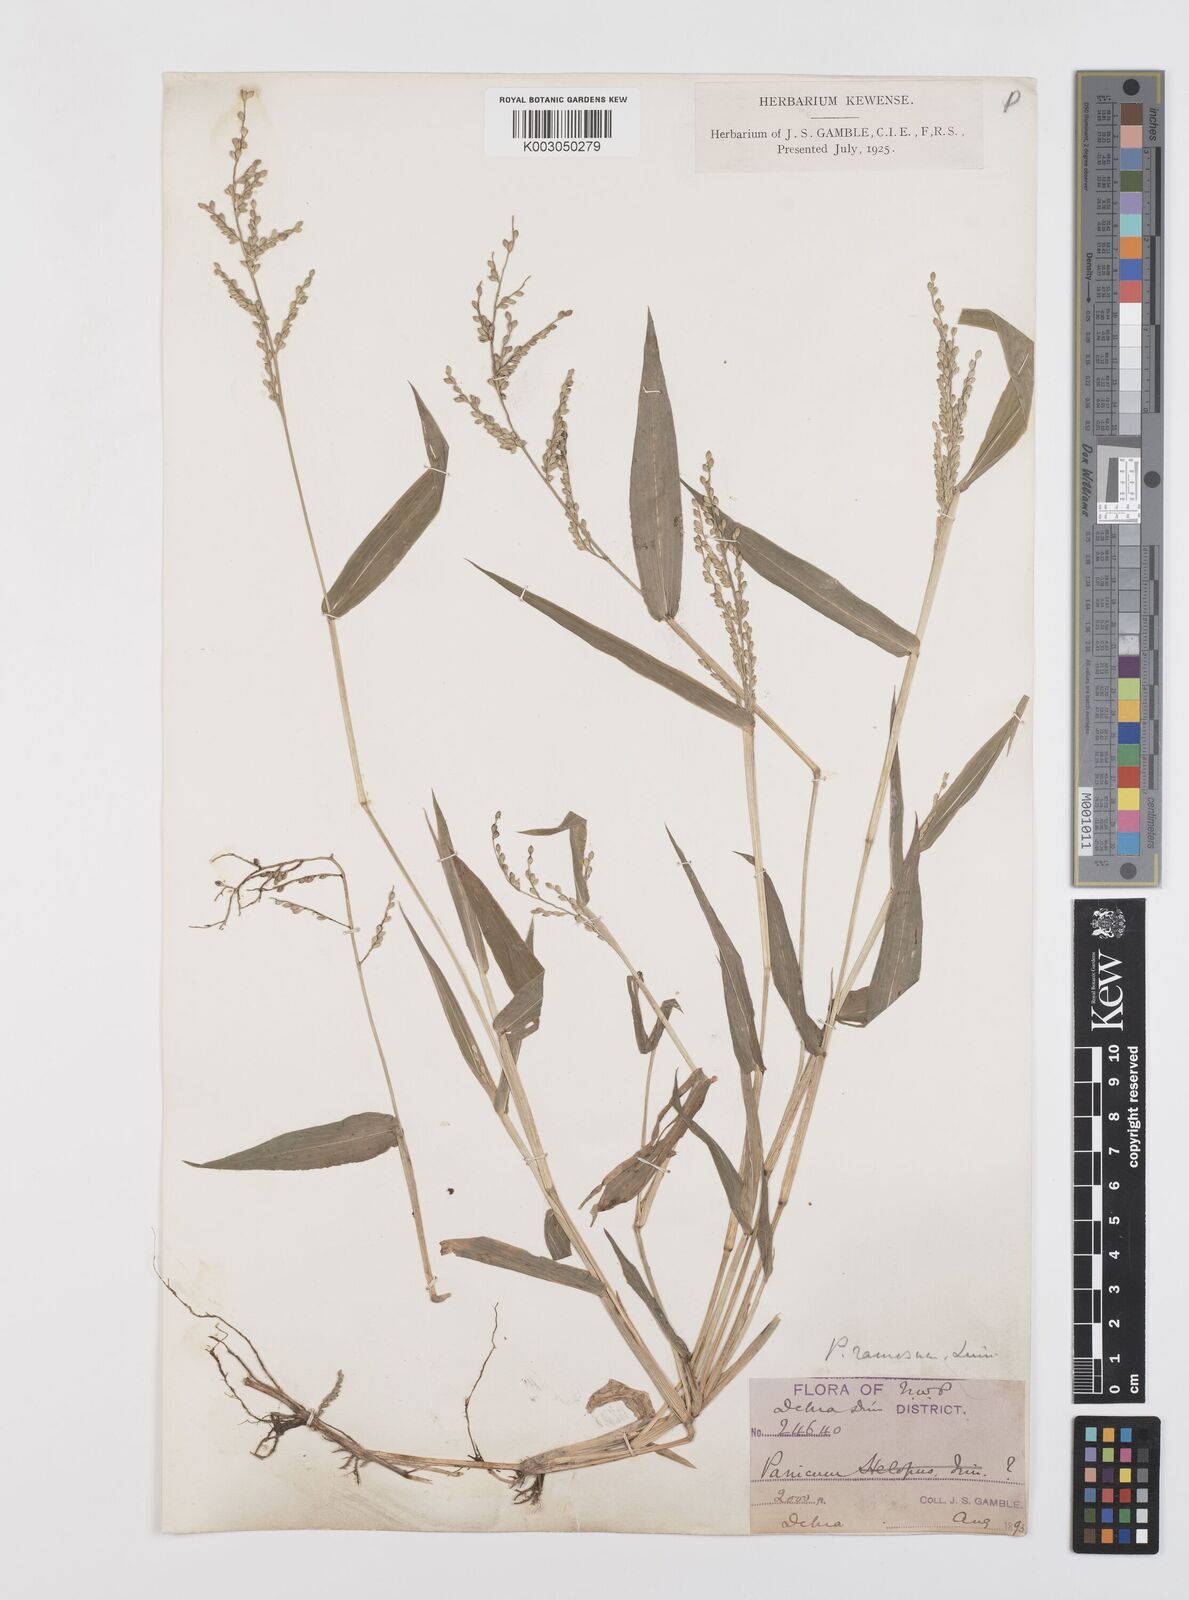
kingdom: Plantae
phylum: Tracheophyta
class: Liliopsida
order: Poales
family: Poaceae
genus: Urochloa
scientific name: Urochloa ramosa
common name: Browntop millet
